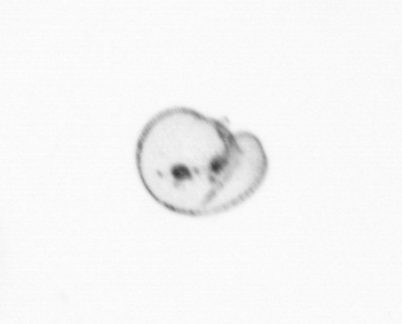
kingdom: Chromista
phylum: Myzozoa
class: Dinophyceae
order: Noctilucales
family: Noctilucaceae
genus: Noctiluca
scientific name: Noctiluca scintillans
